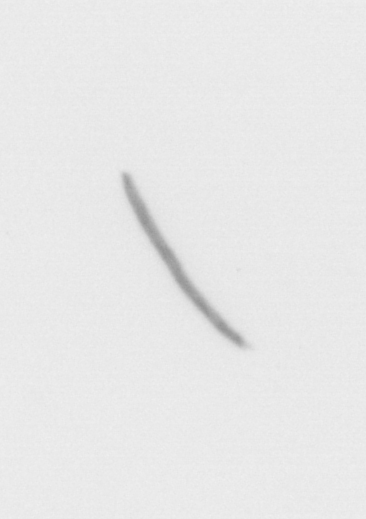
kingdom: Chromista
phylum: Ochrophyta
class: Bacillariophyceae
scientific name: Bacillariophyceae
